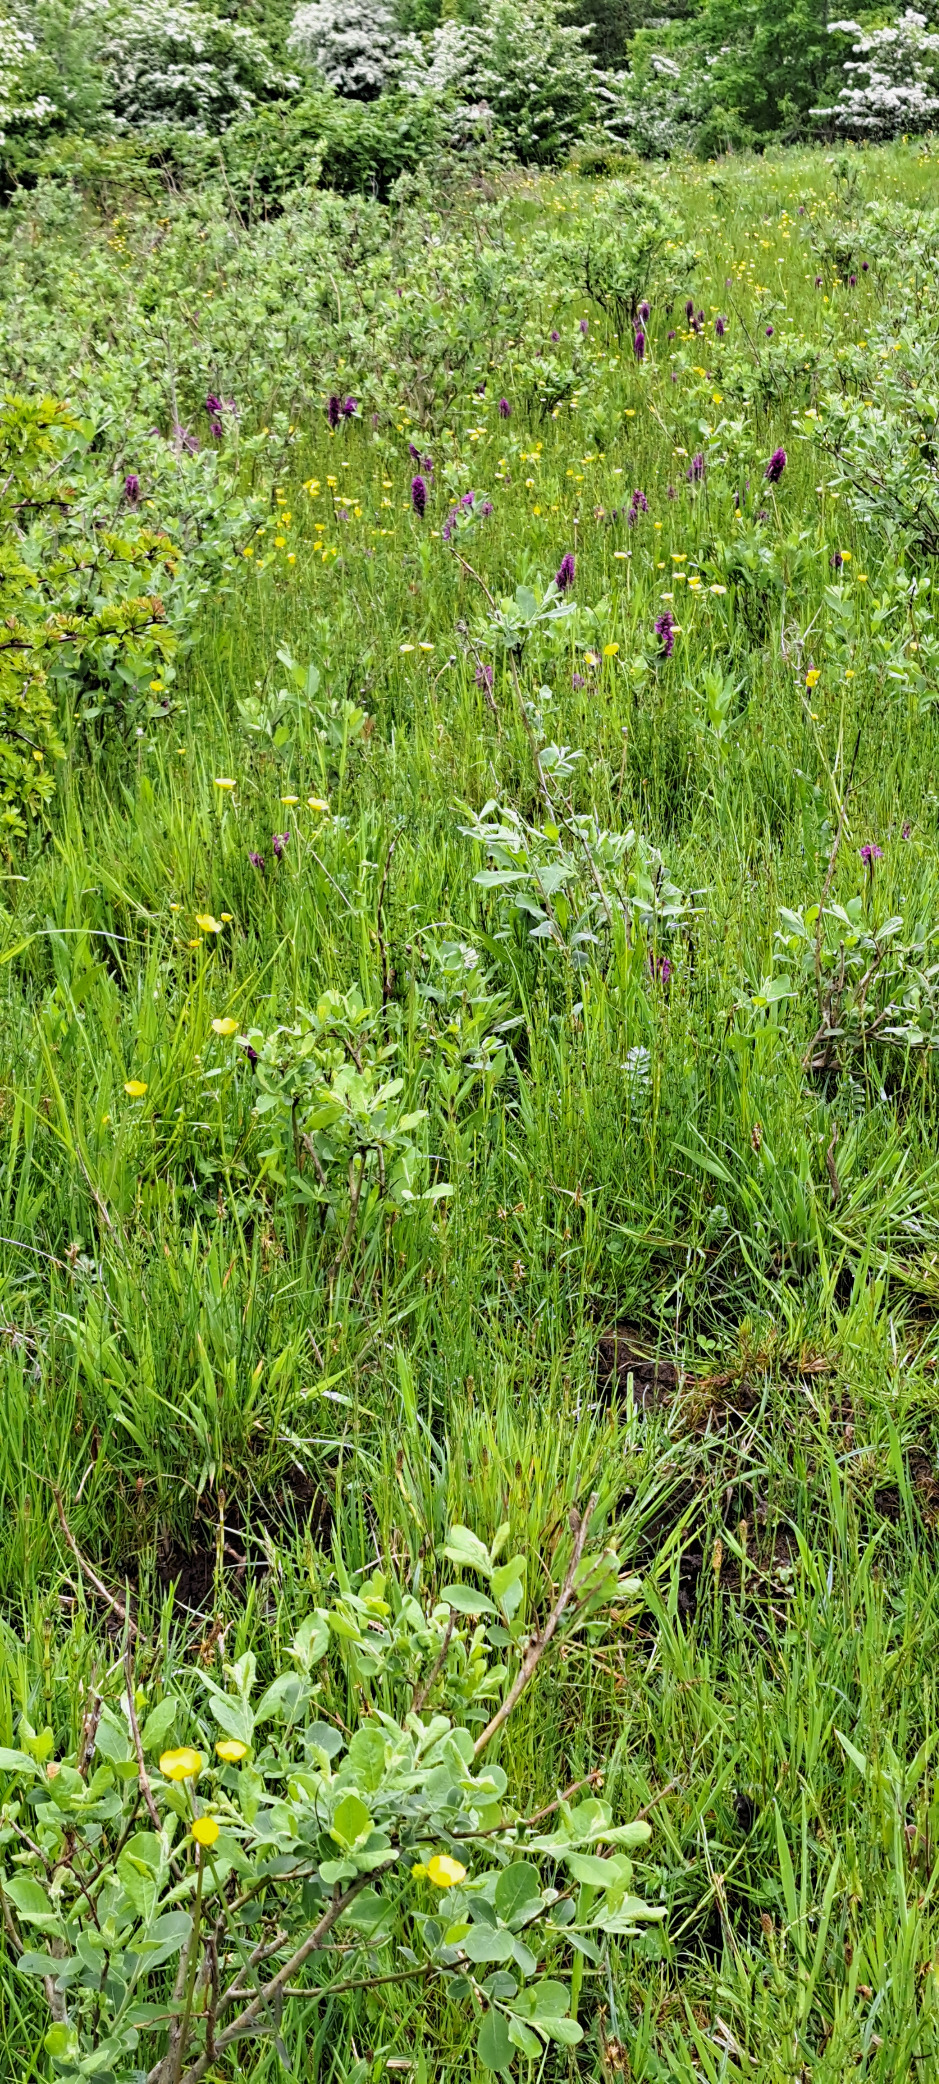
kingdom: Plantae
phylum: Tracheophyta
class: Liliopsida
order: Asparagales
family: Orchidaceae
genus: Dactylorhiza
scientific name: Dactylorhiza majalis
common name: Maj-gøgeurt
